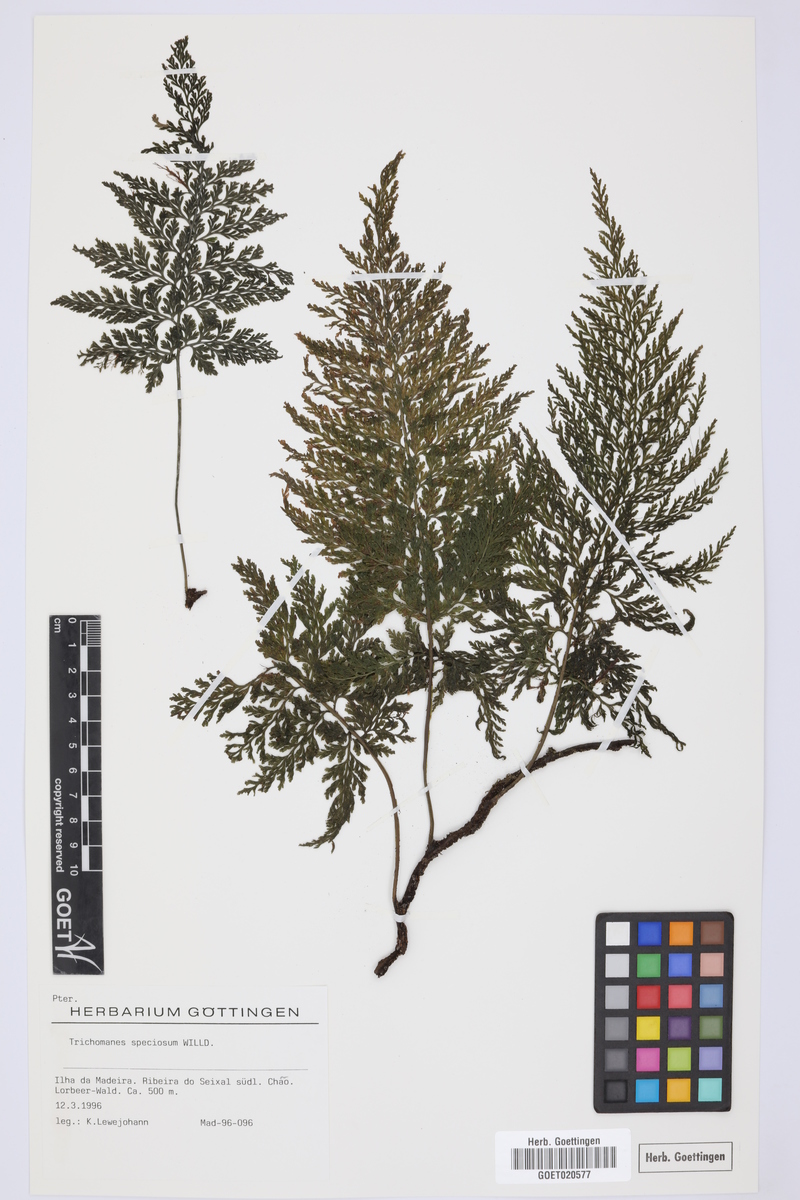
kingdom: Plantae
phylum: Tracheophyta
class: Polypodiopsida
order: Hymenophyllales
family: Hymenophyllaceae
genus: Vandenboschia
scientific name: Vandenboschia speciosa
